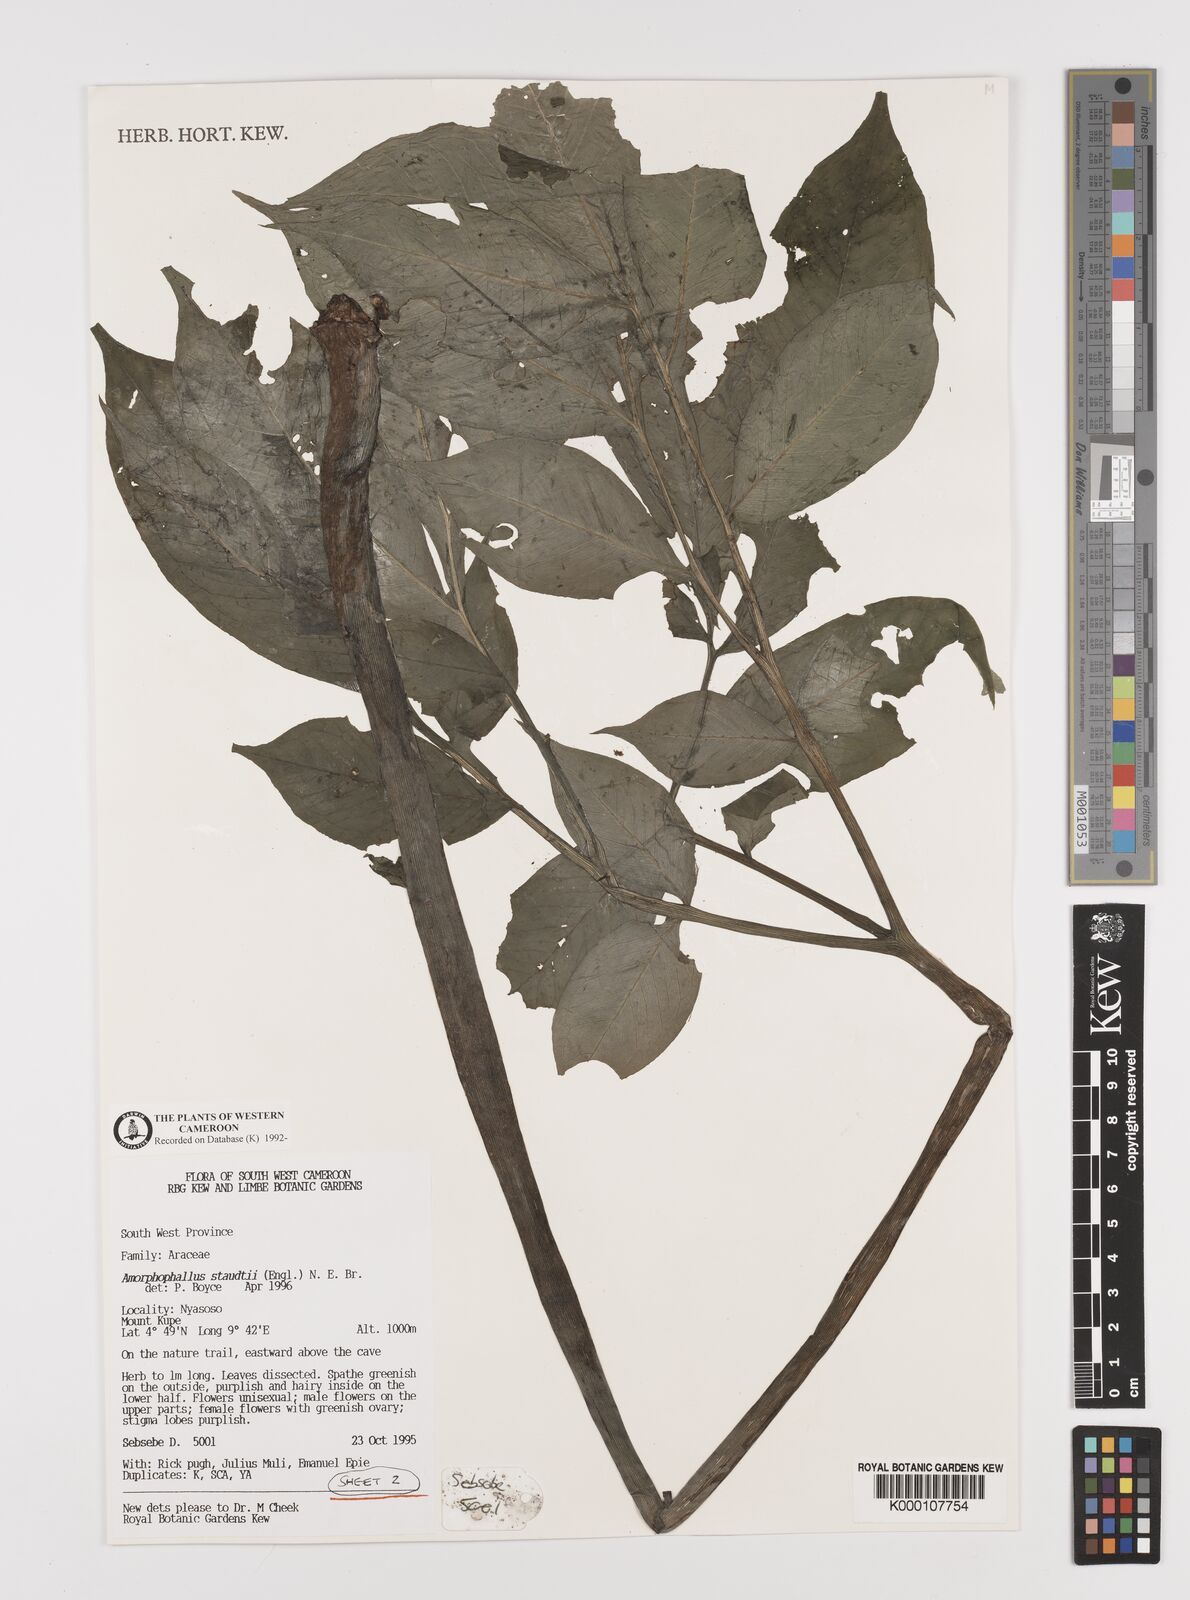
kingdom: Plantae
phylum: Tracheophyta
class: Liliopsida
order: Alismatales
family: Araceae
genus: Amorphophallus
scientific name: Amorphophallus staudtii
